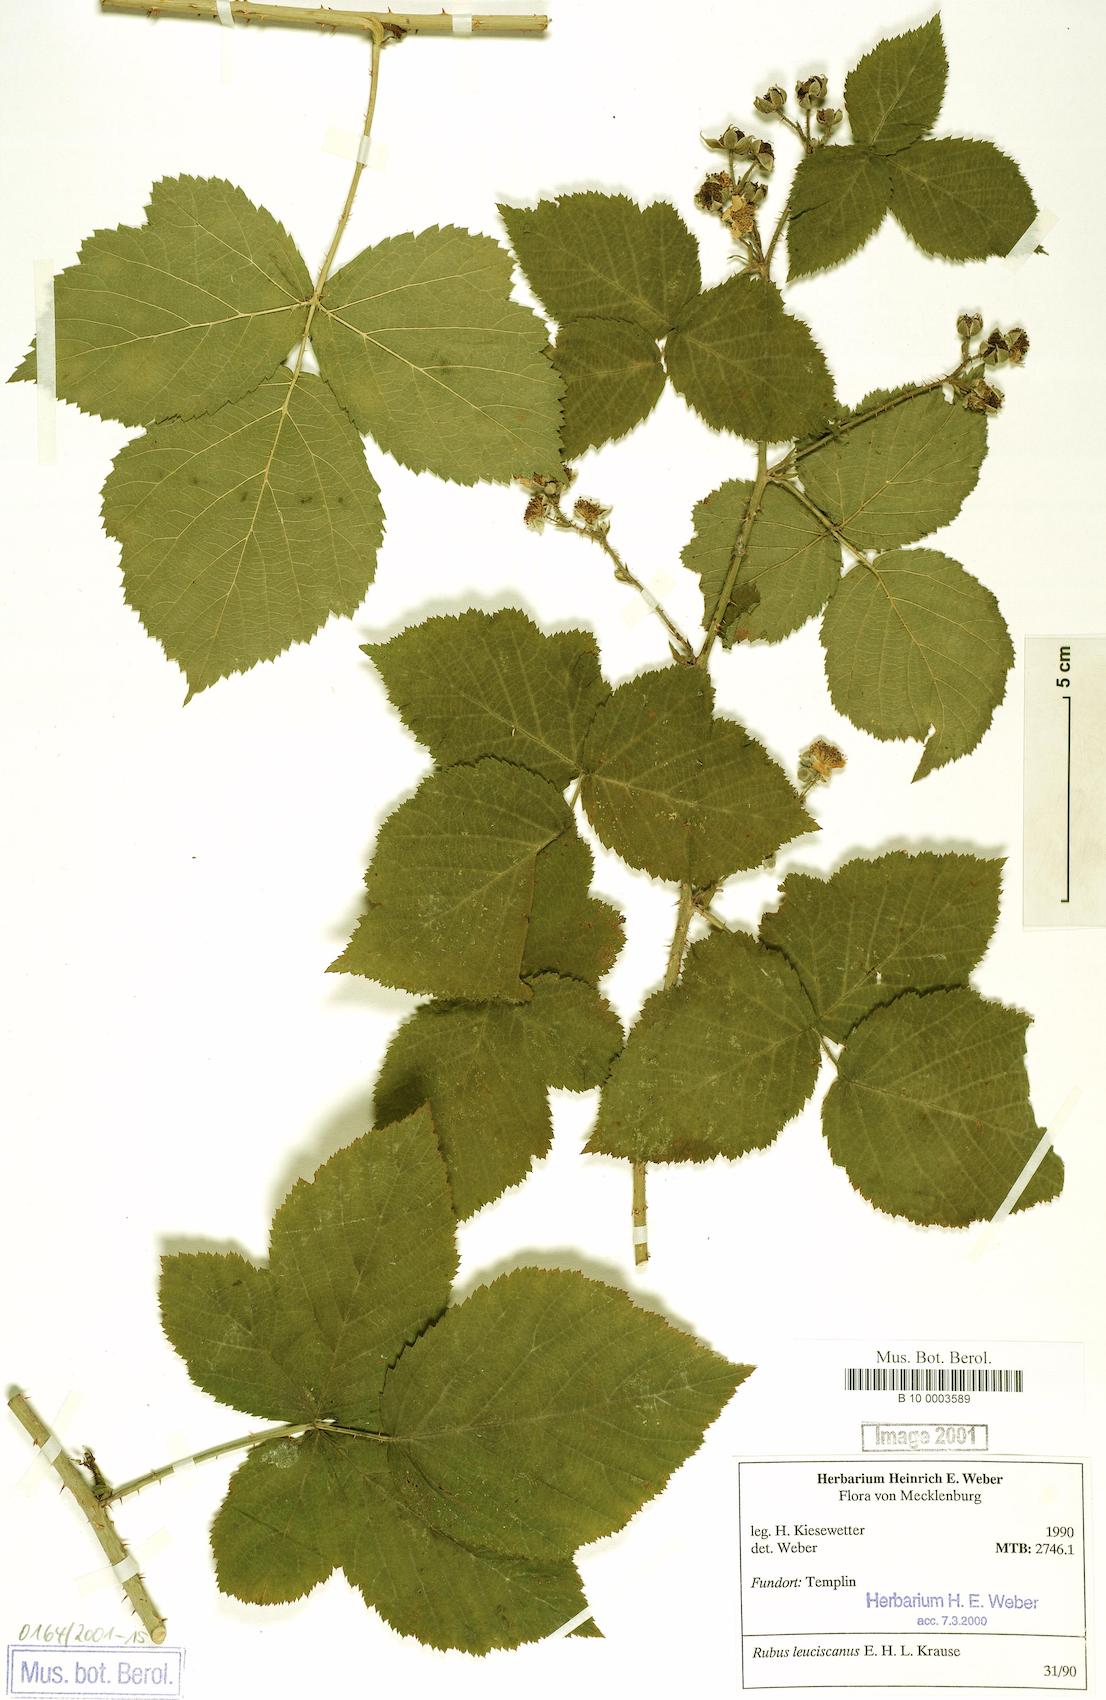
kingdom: Plantae
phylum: Tracheophyta
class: Magnoliopsida
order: Rosales
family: Rosaceae
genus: Rubus
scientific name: Rubus leuciscanus
